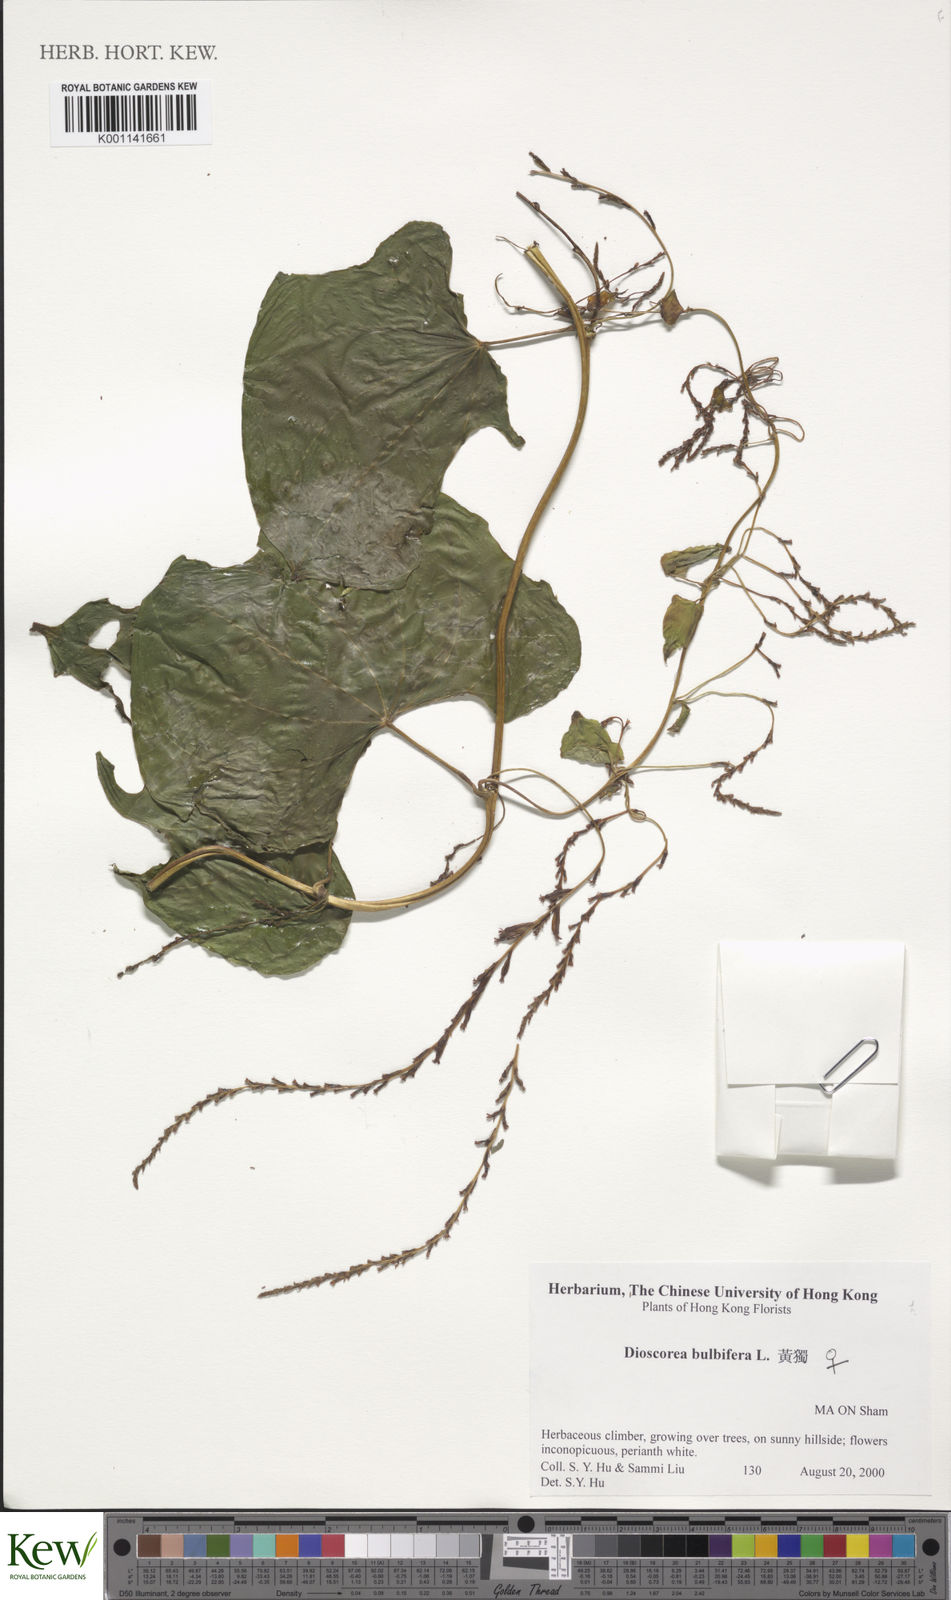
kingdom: Plantae
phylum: Tracheophyta
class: Liliopsida
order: Dioscoreales
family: Dioscoreaceae
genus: Dioscorea
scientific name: Dioscorea bulbifera
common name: Air yam
